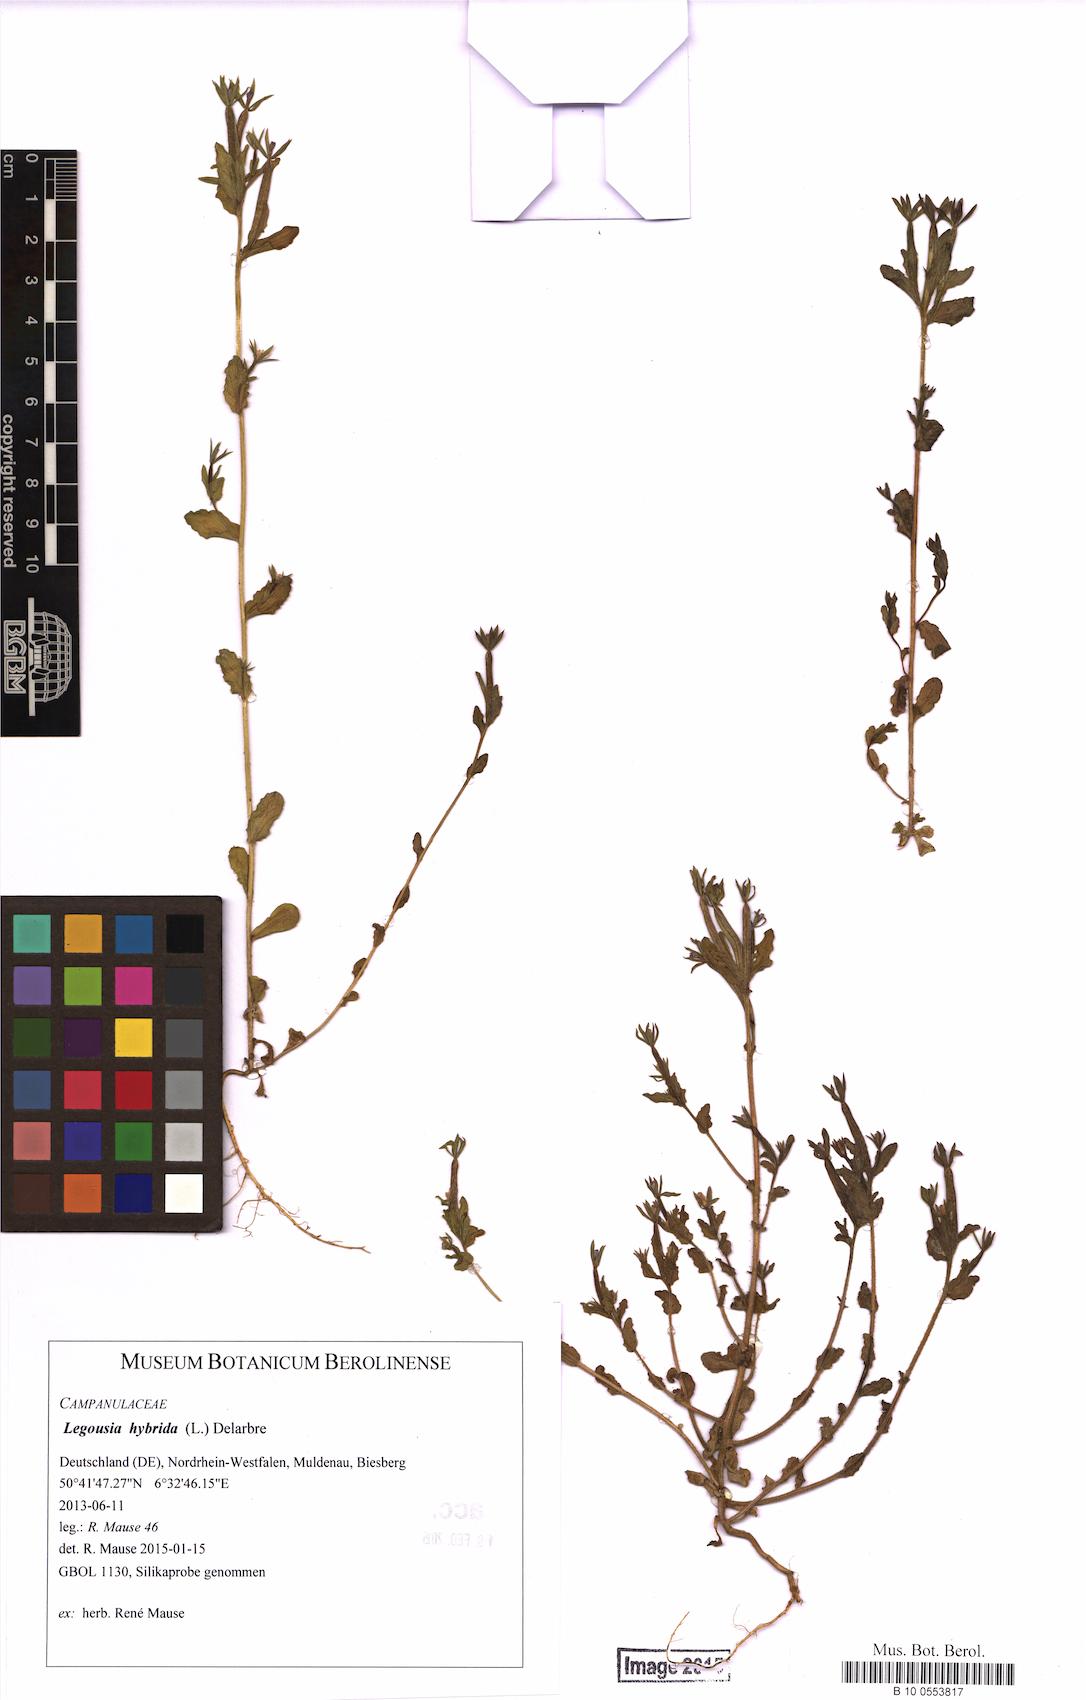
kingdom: Plantae
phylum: Tracheophyta
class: Magnoliopsida
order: Asterales
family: Campanulaceae
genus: Legousia
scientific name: Legousia hybrida
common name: Venus's-looking-glass
